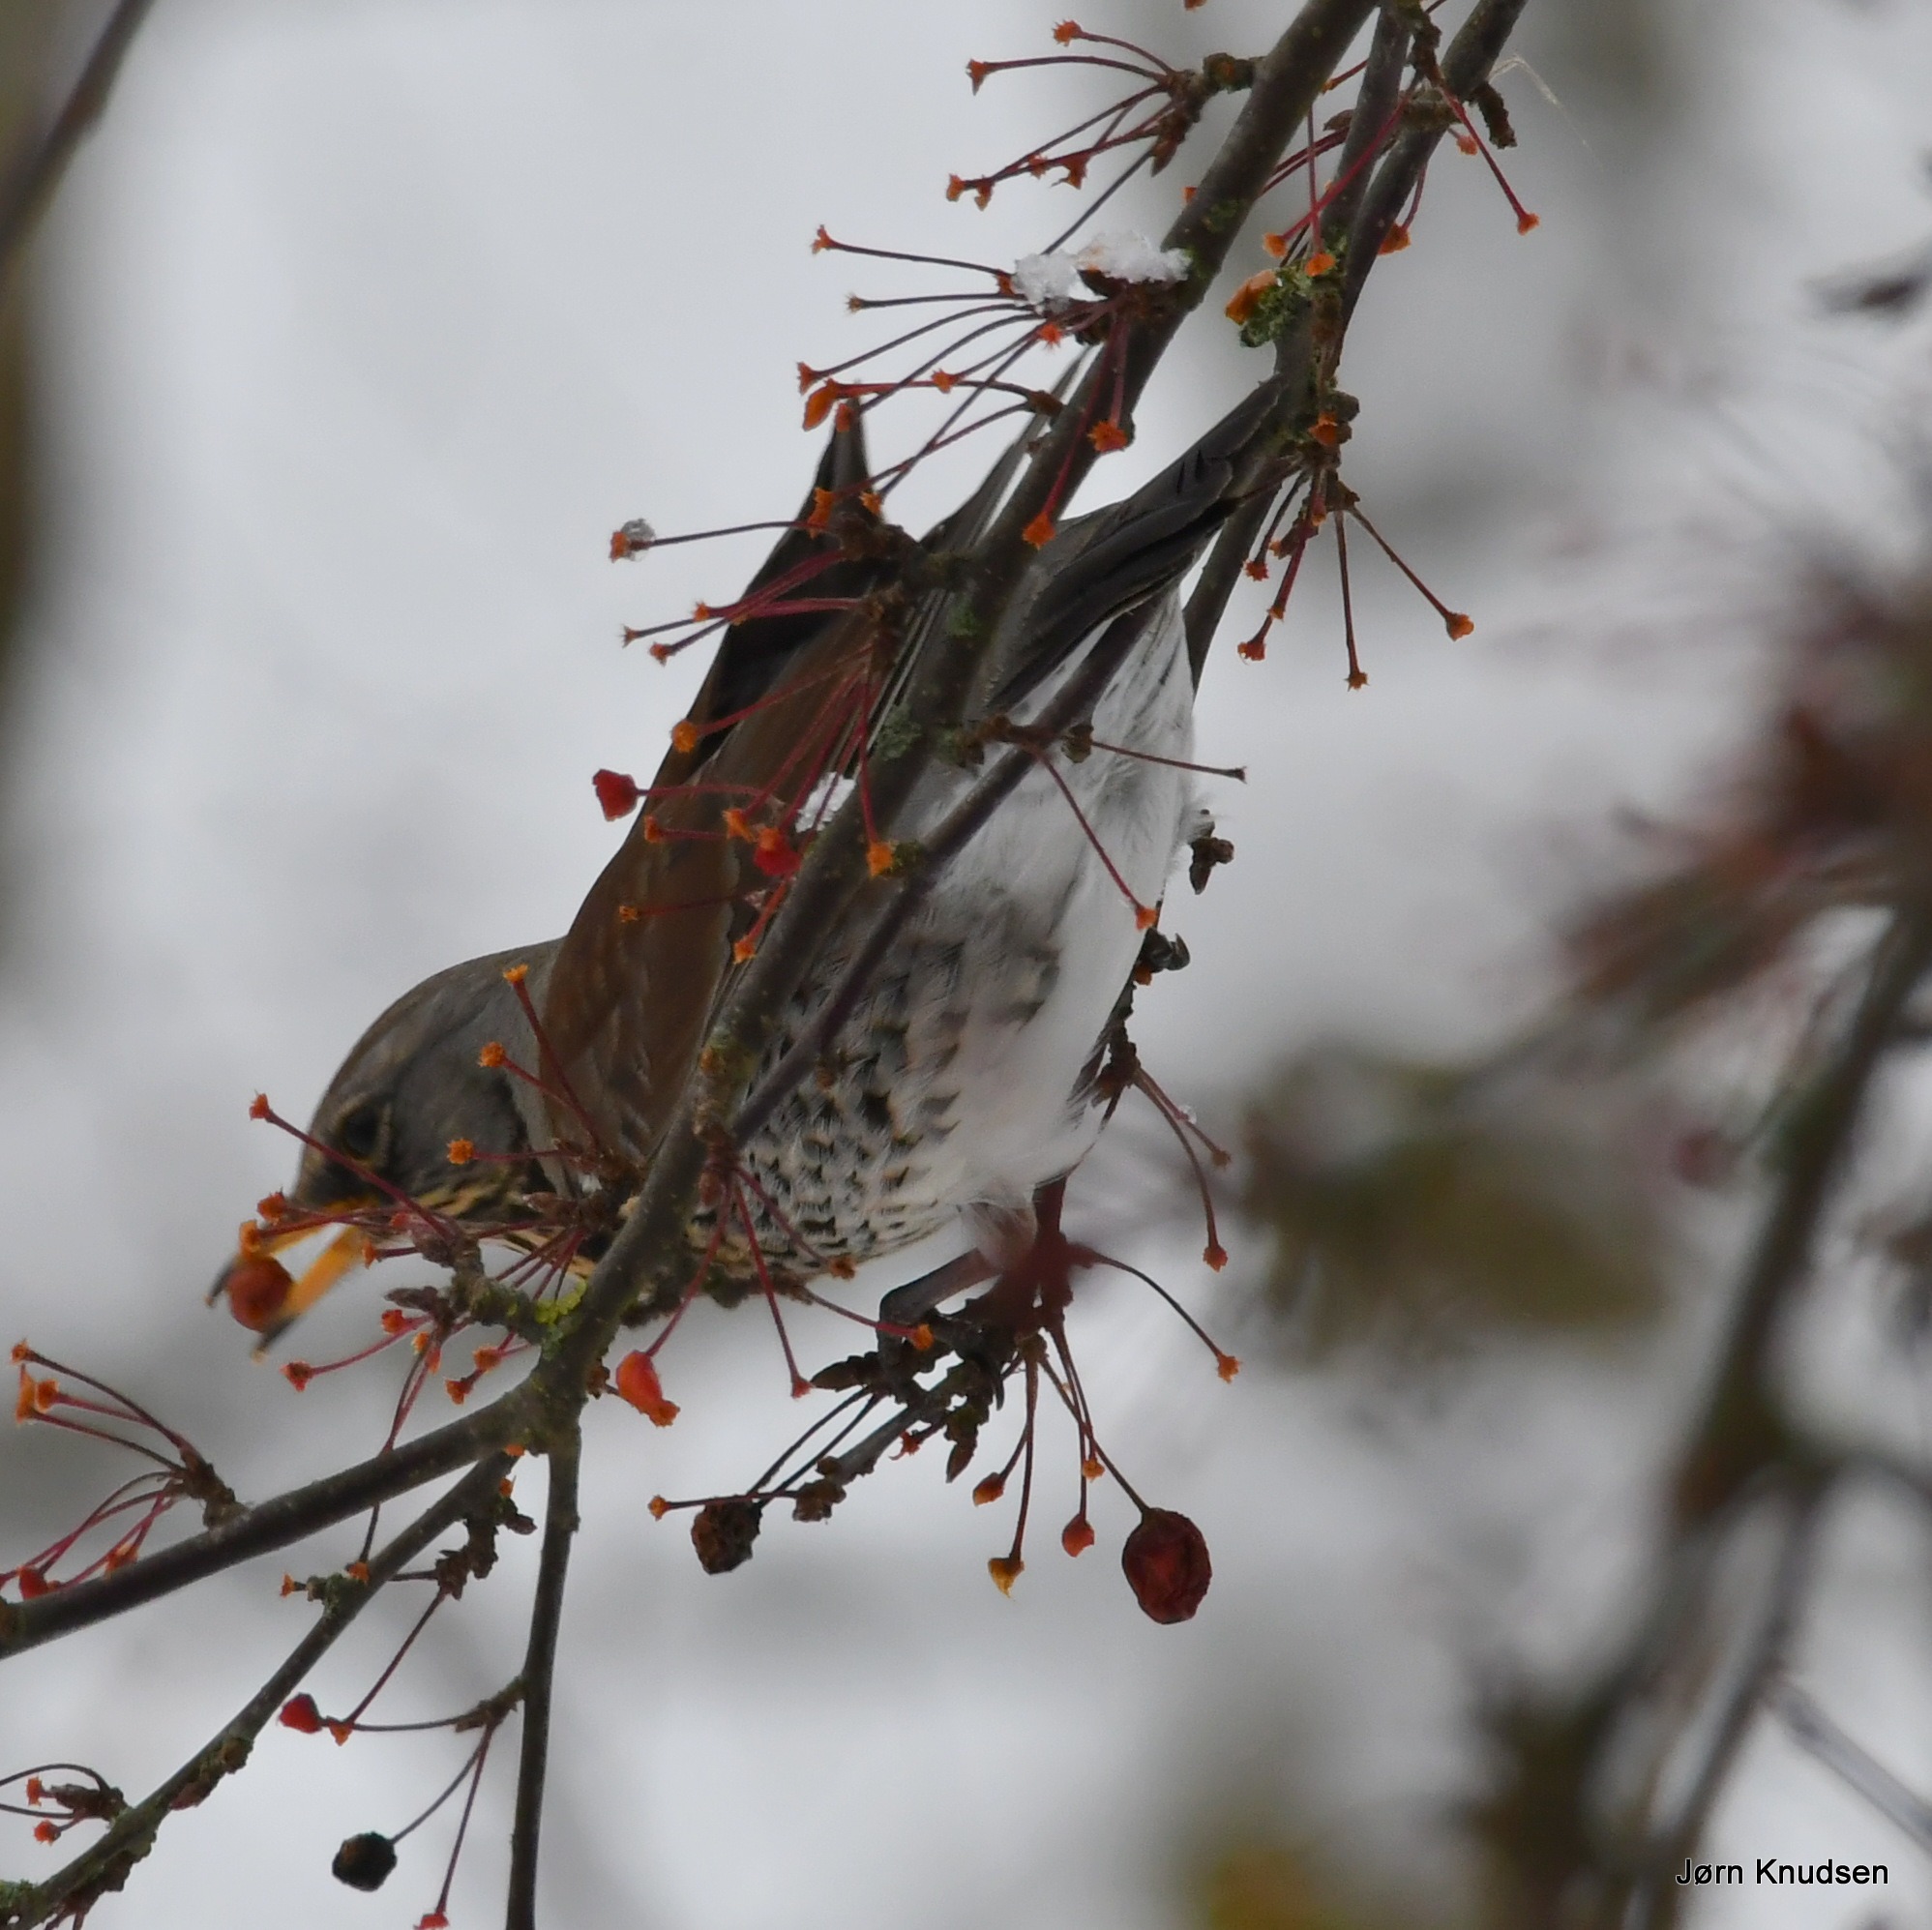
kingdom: Animalia
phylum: Chordata
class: Aves
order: Passeriformes
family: Turdidae
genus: Turdus
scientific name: Turdus pilaris
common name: Sjagger
